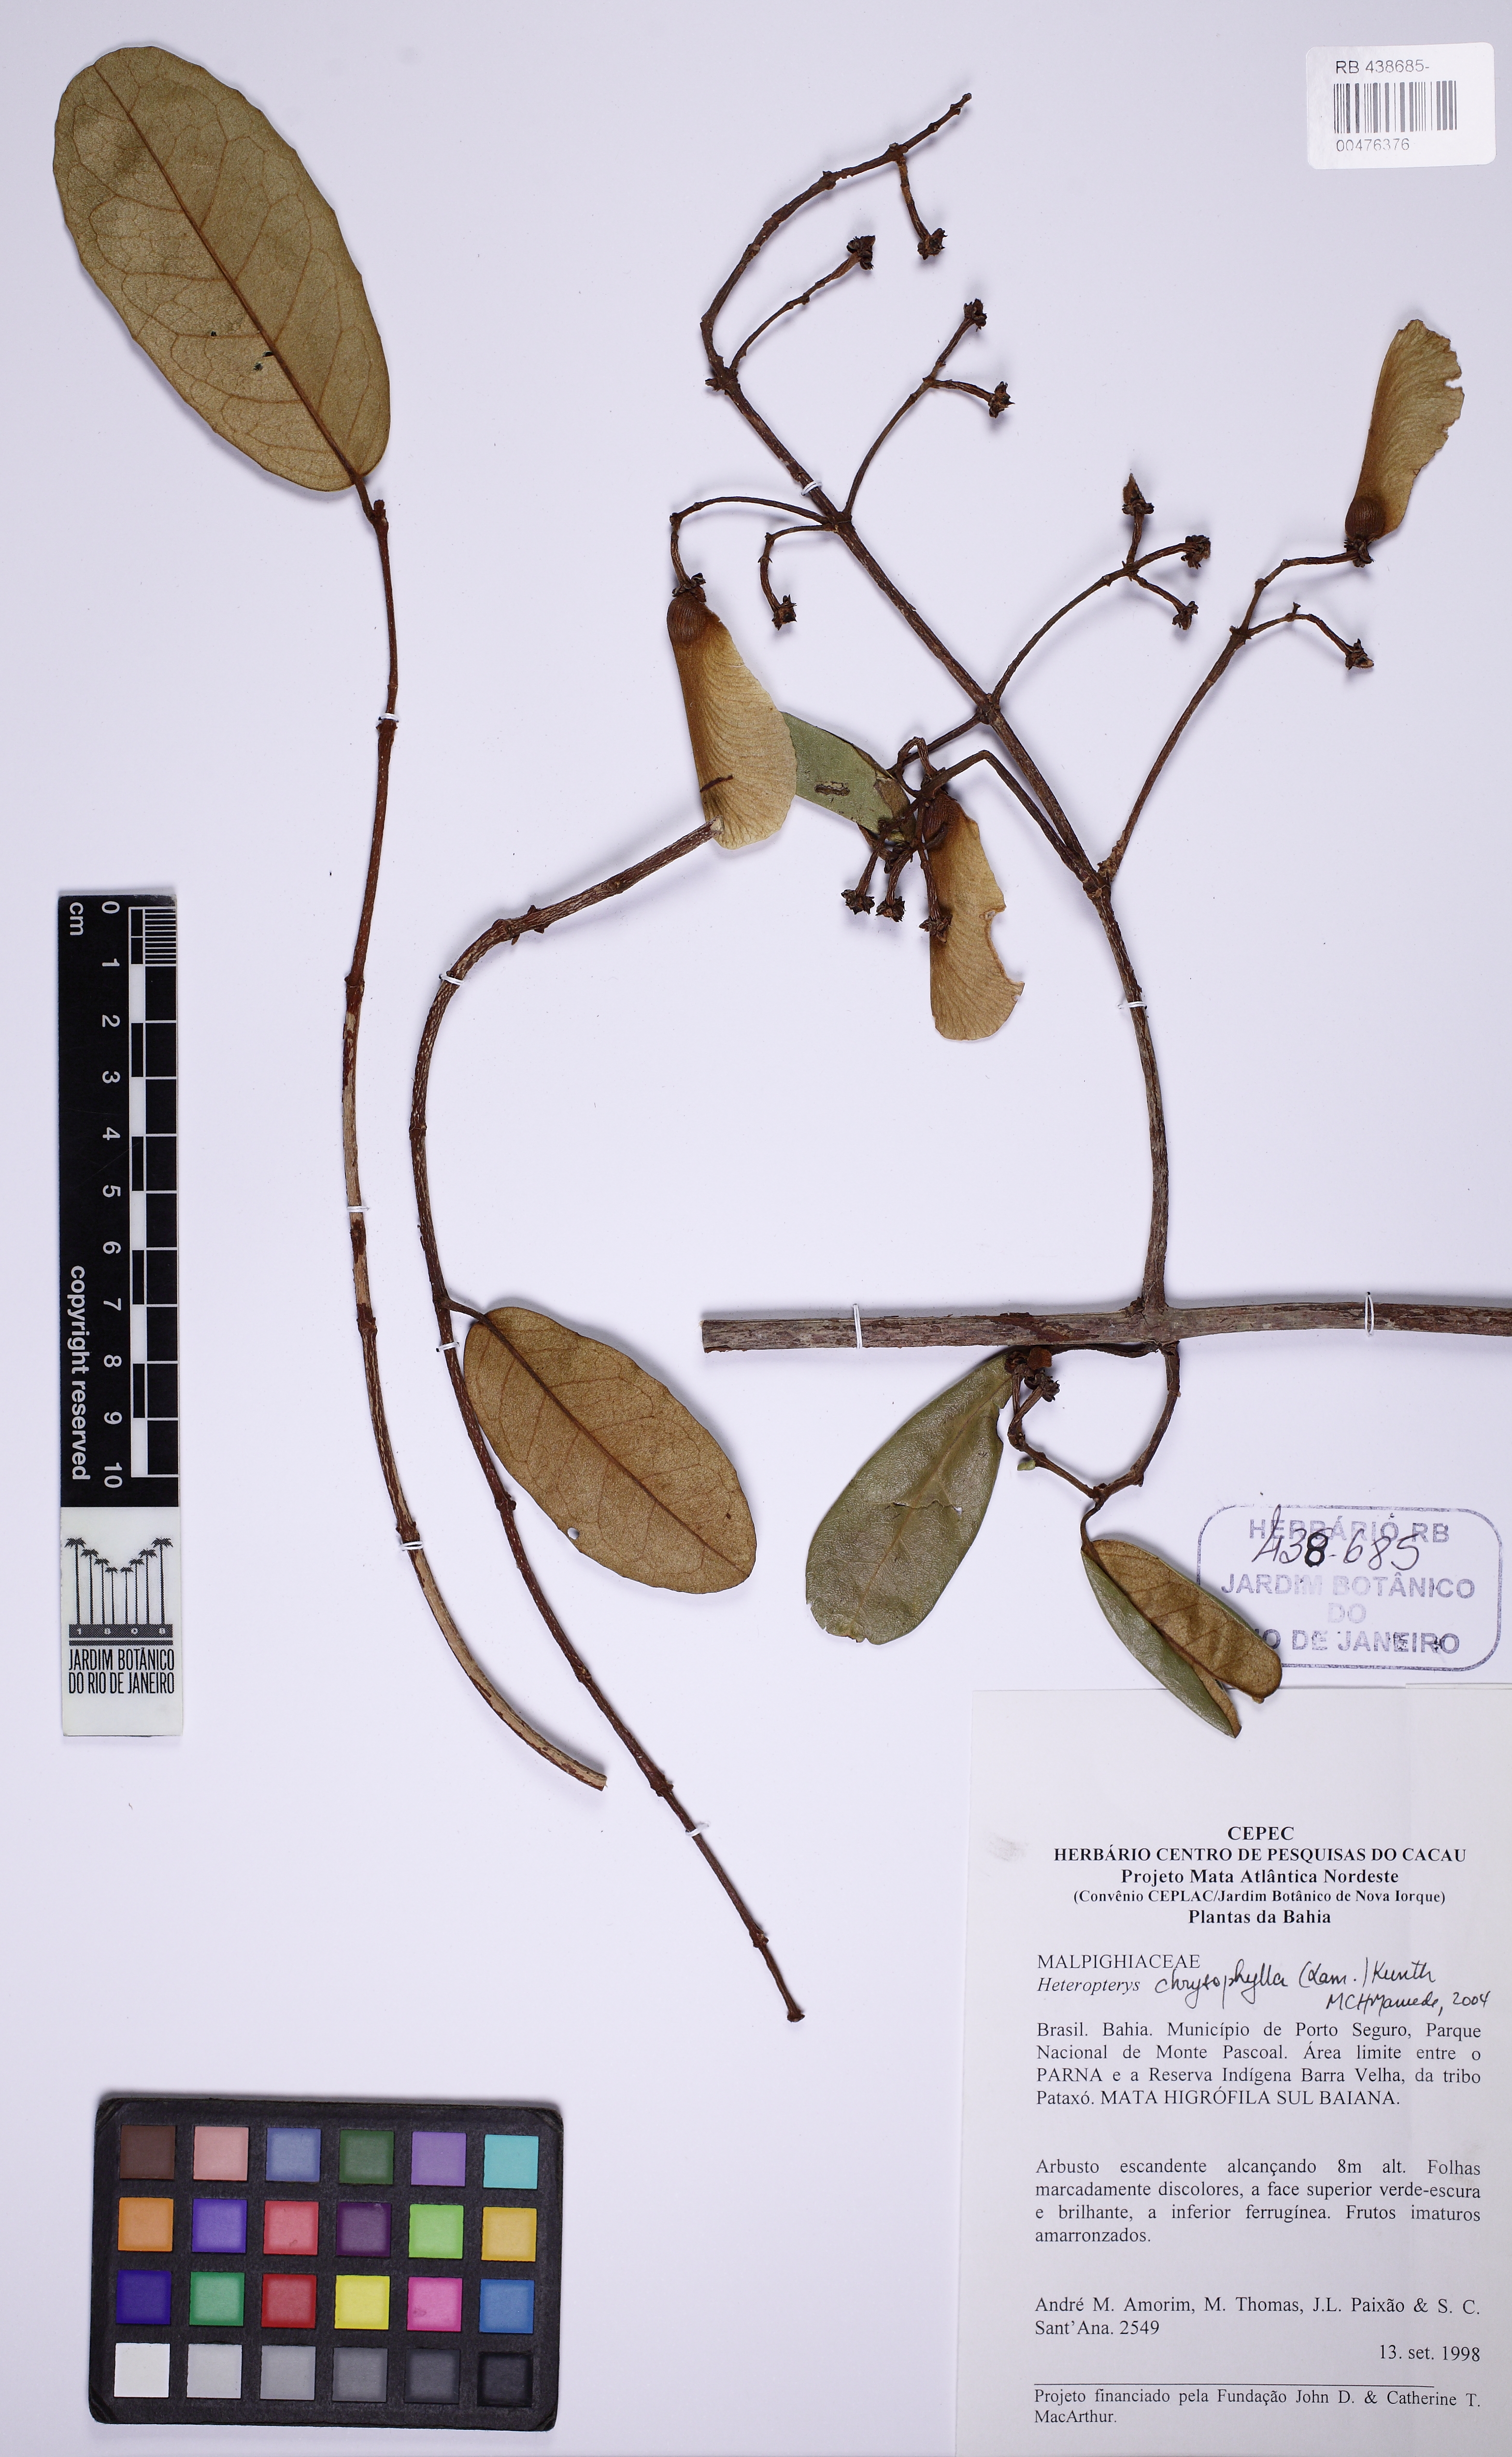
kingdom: Plantae
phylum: Tracheophyta
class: Magnoliopsida
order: Malpighiales
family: Malpighiaceae
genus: Heteropterys
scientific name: Heteropterys chrysophylla
